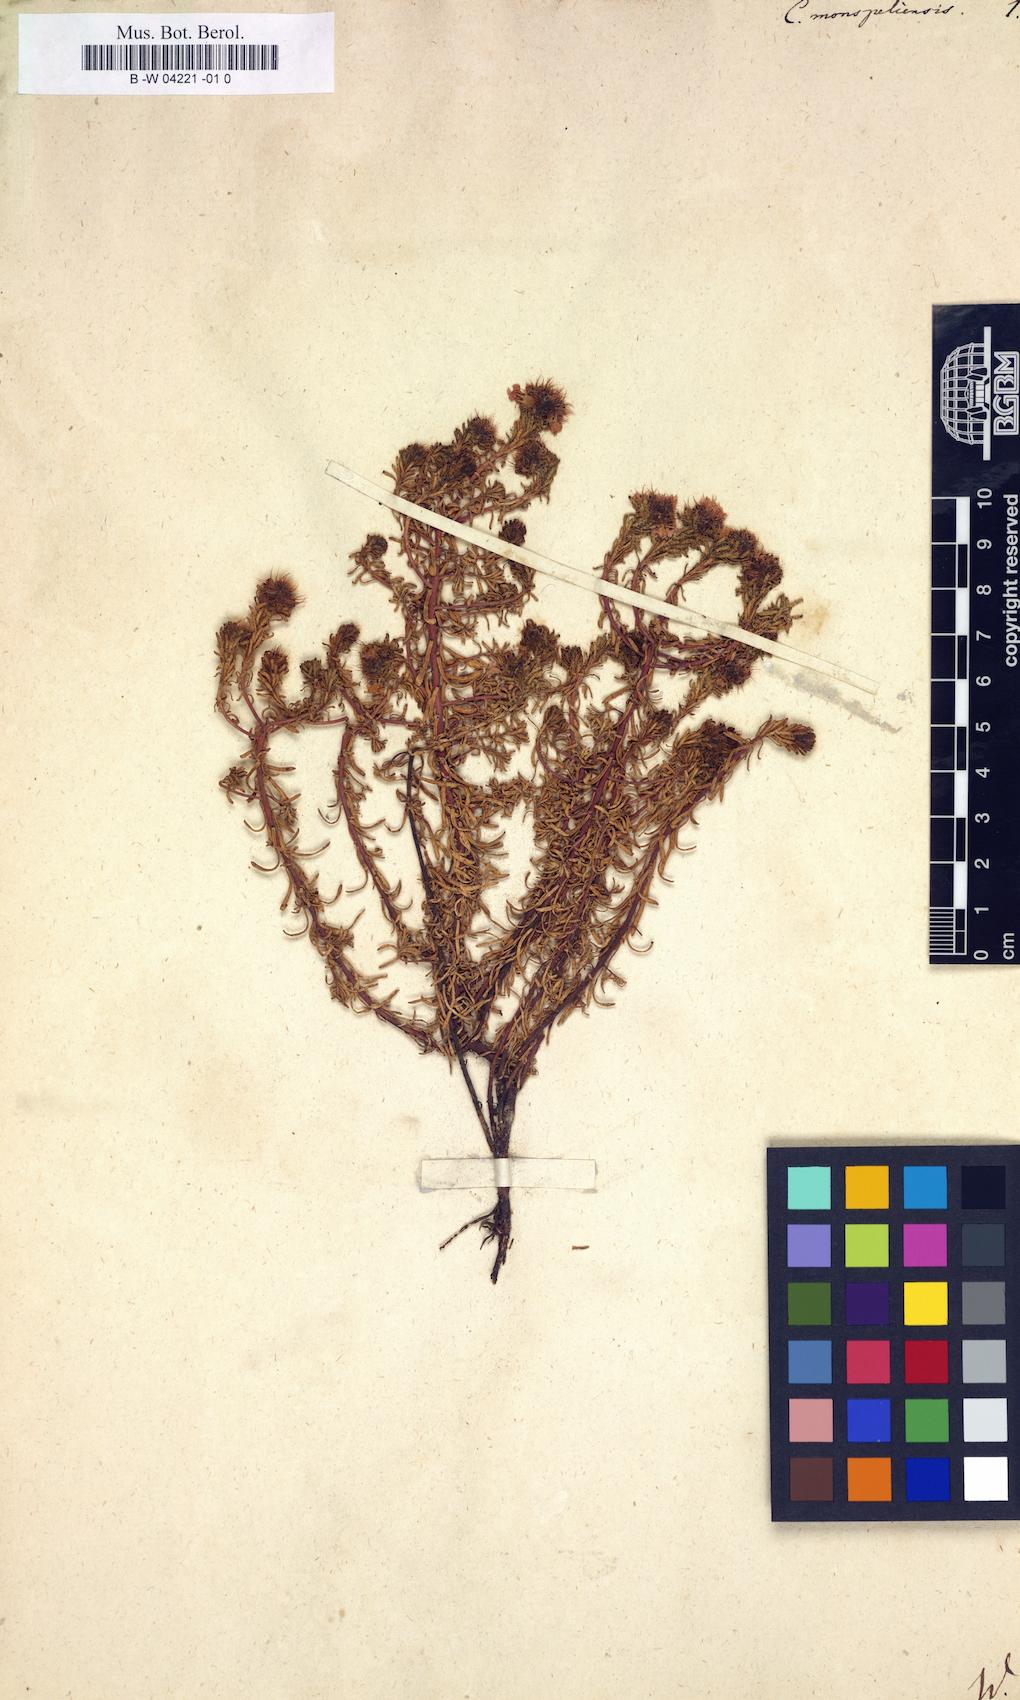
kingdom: Plantae
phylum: Tracheophyta
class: Magnoliopsida
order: Ericales
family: Primulaceae
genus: Coris
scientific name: Coris monspeliensis
